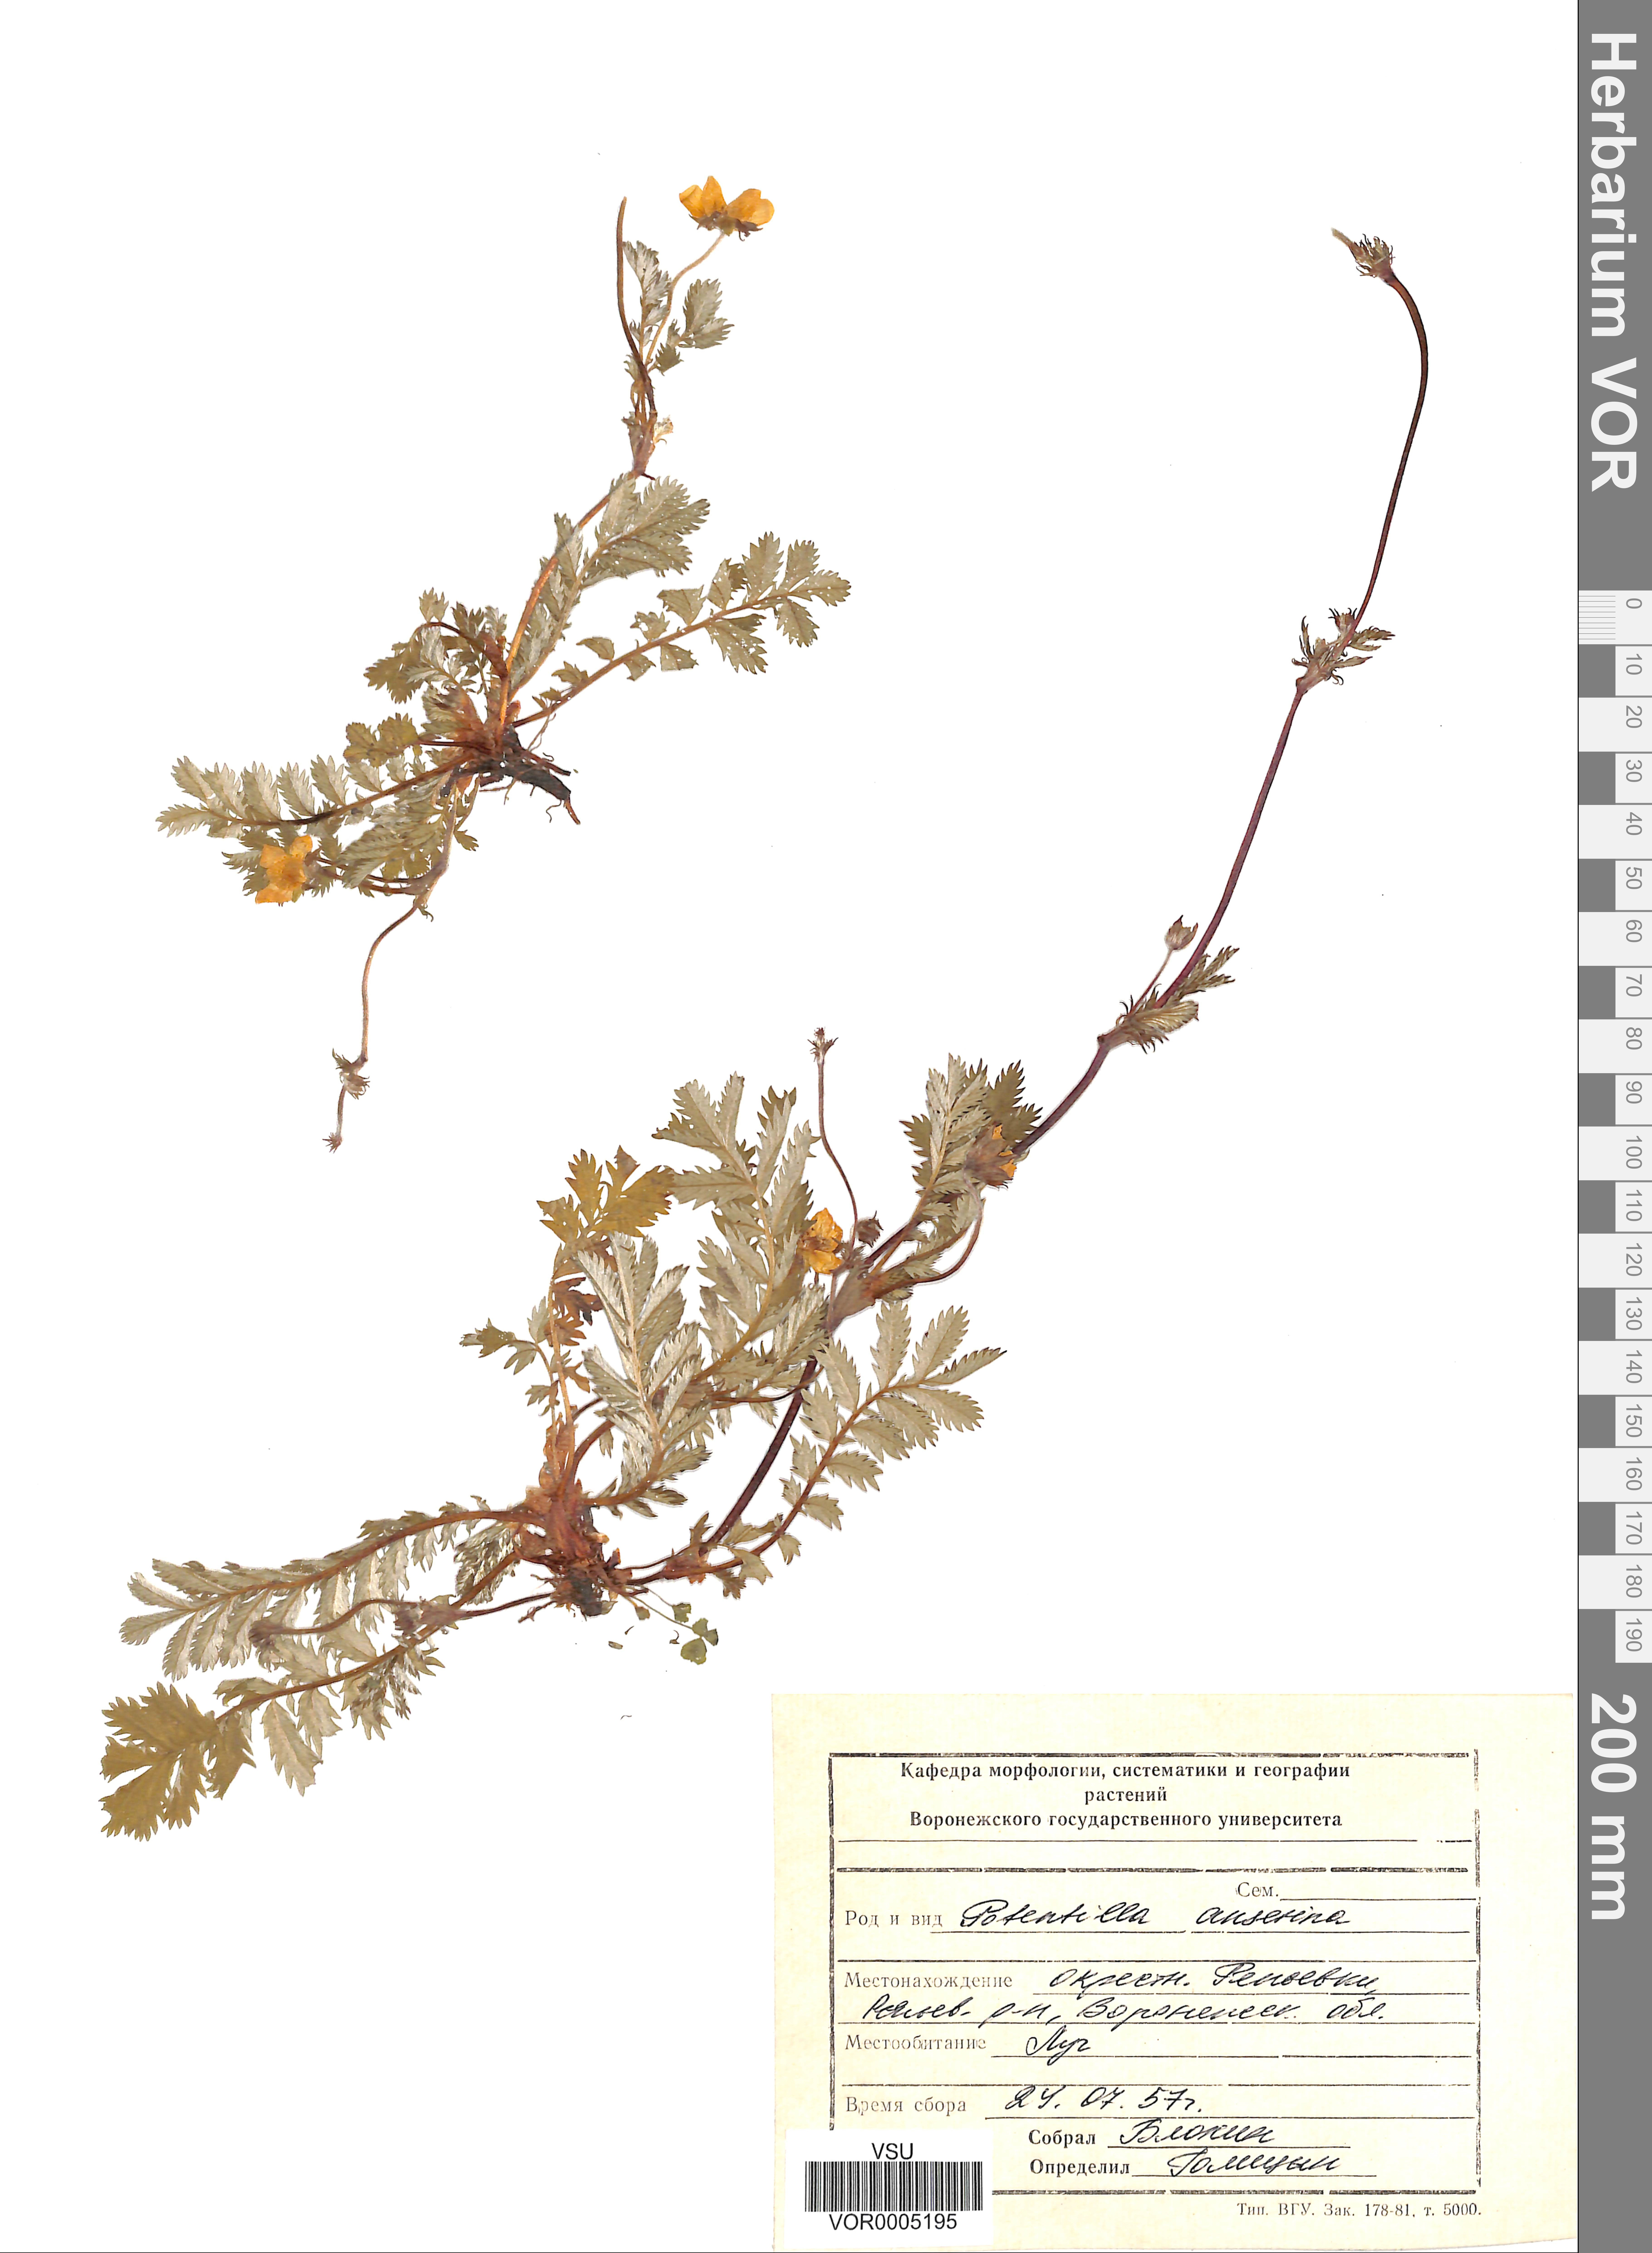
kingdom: Plantae
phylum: Tracheophyta
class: Magnoliopsida
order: Rosales
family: Rosaceae
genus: Argentina
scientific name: Argentina anserina
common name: Common silverweed
